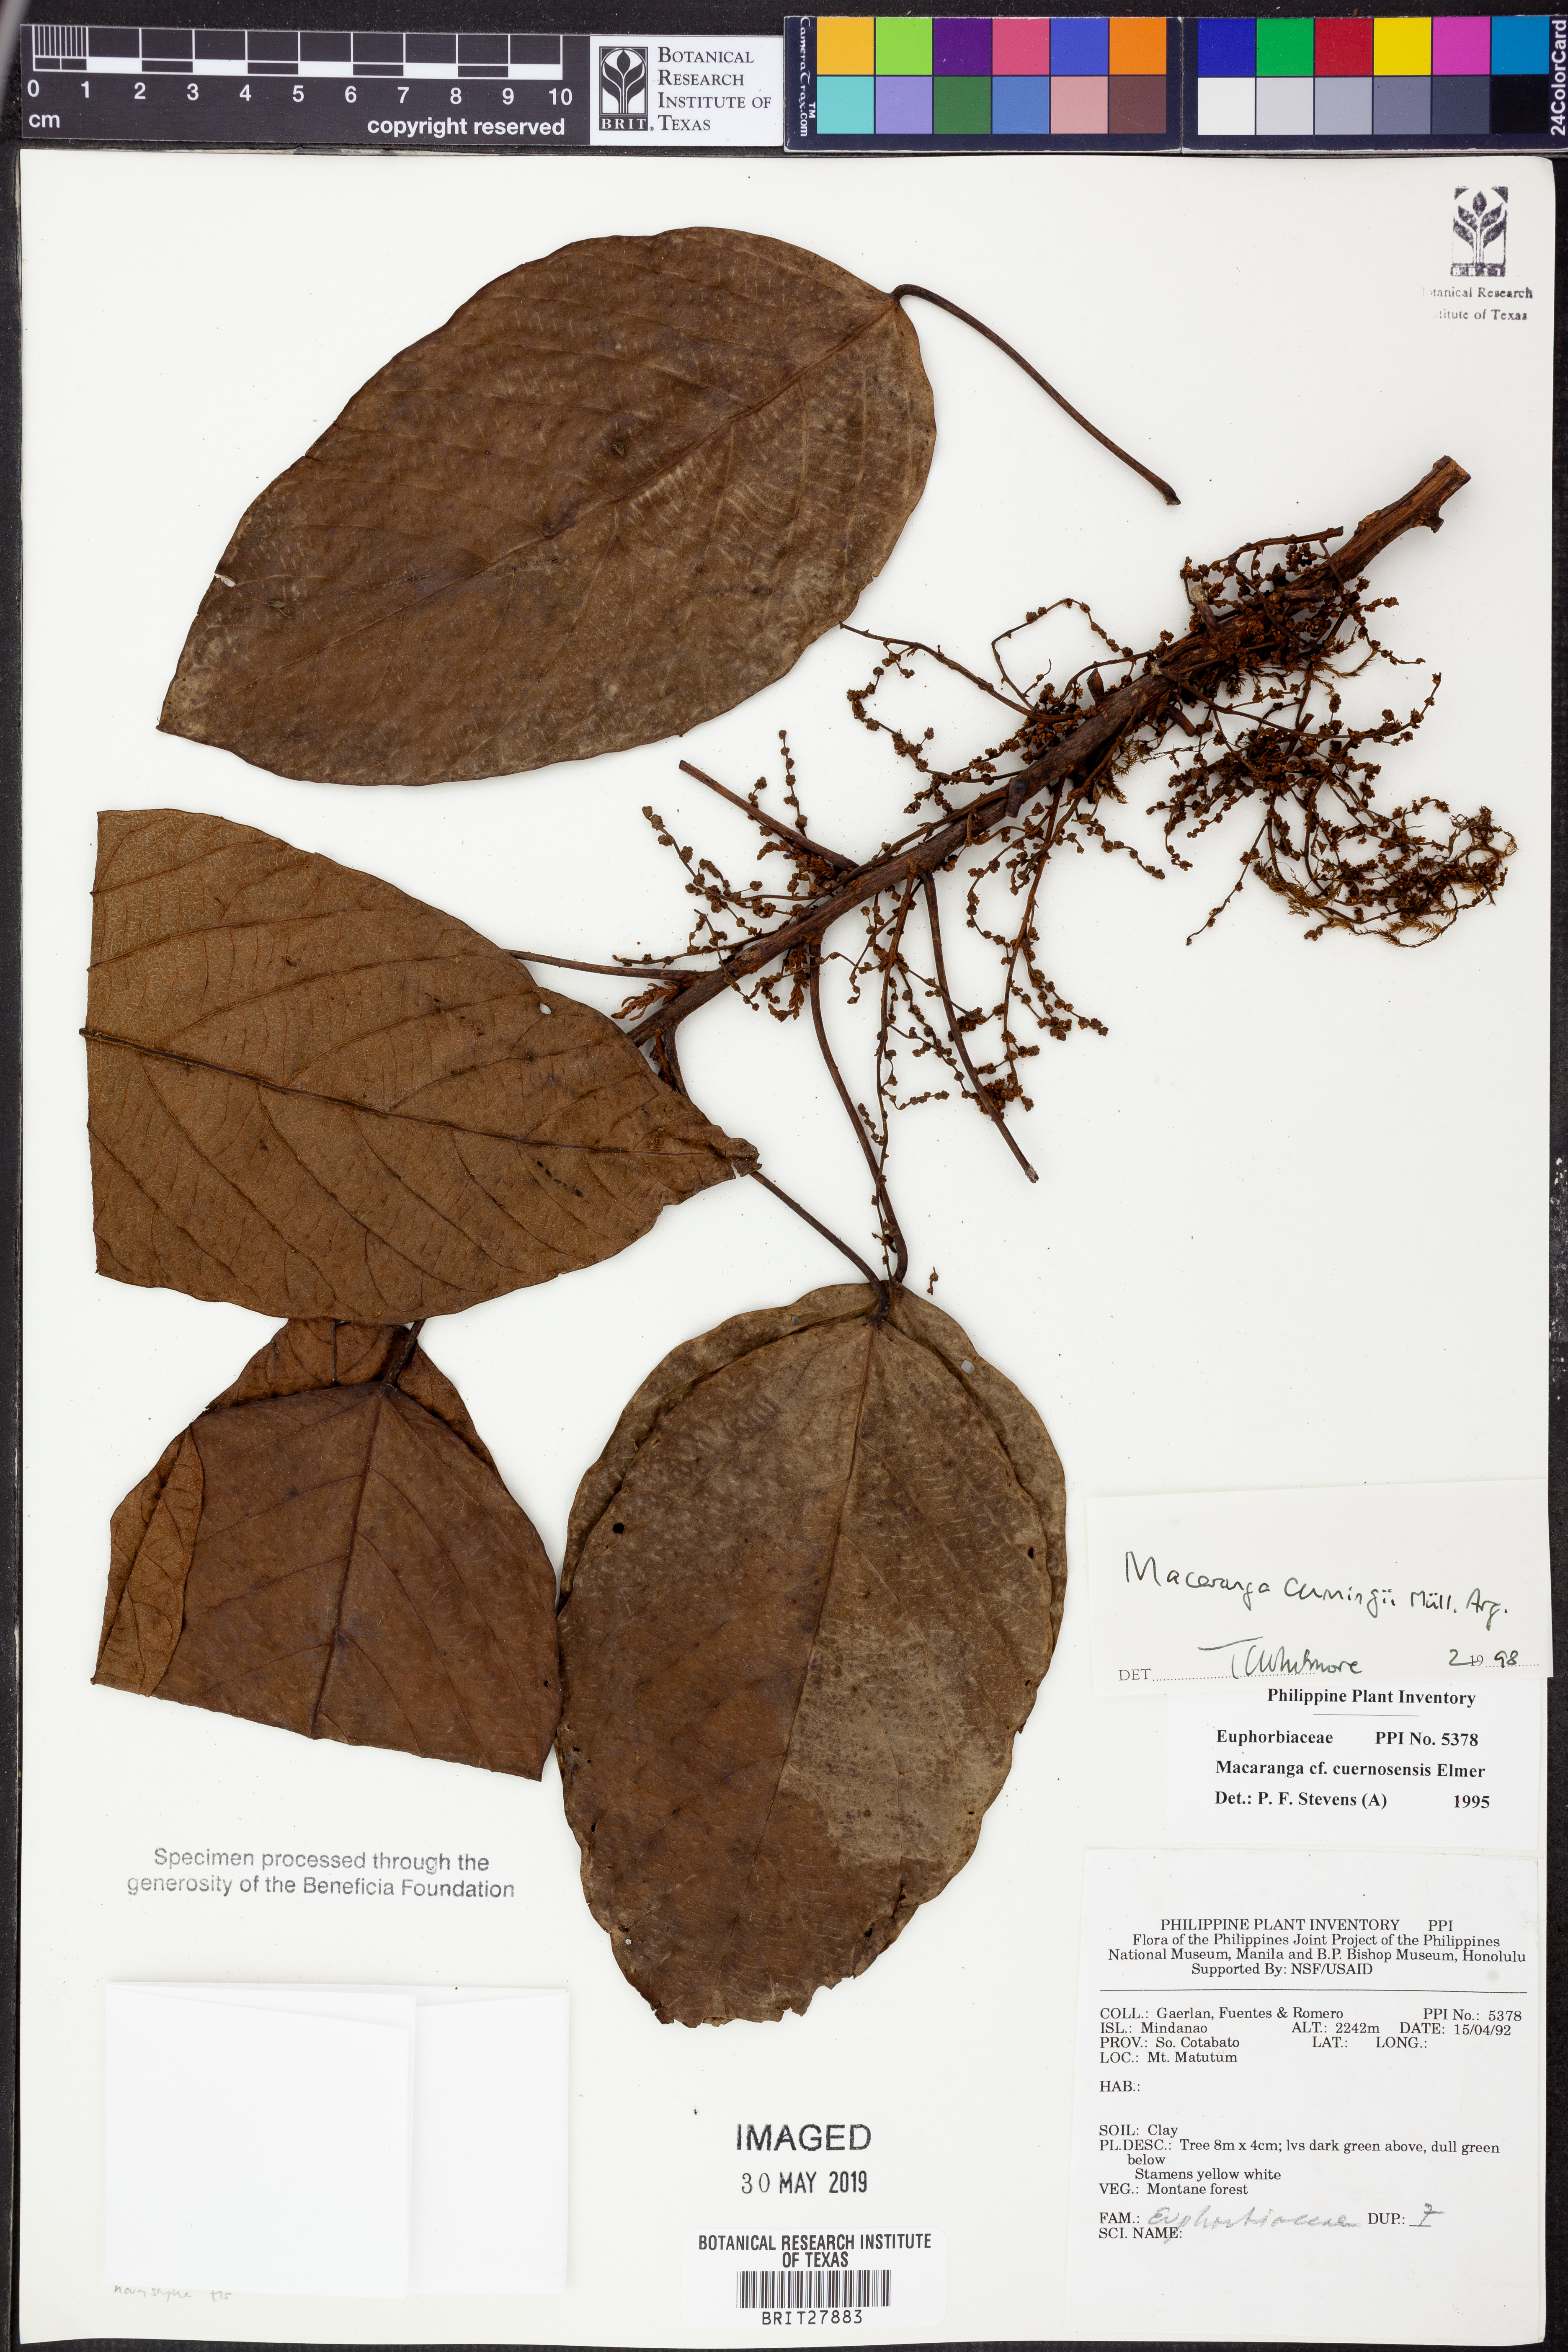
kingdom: Plantae
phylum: Tracheophyta
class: Magnoliopsida
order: Malpighiales
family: Euphorbiaceae
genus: Macaranga
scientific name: Macaranga cumingii
